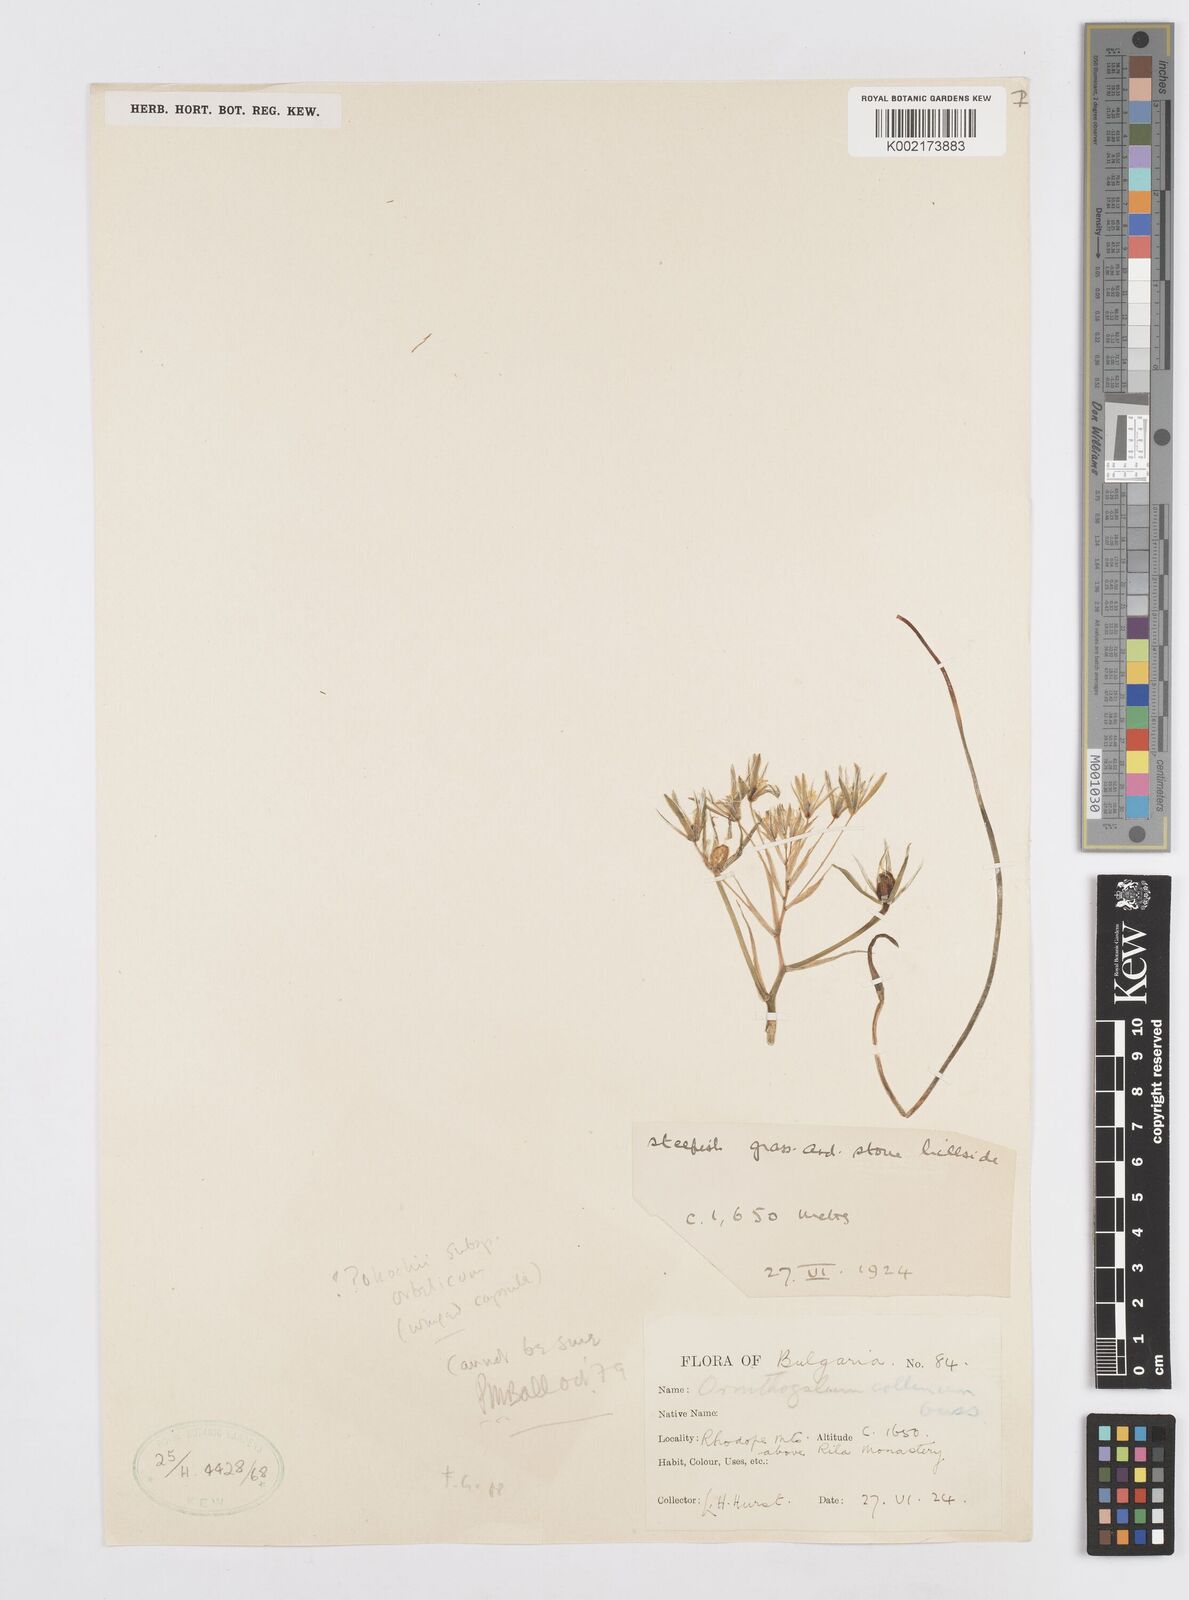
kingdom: Plantae
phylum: Tracheophyta
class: Liliopsida
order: Asparagales
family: Asparagaceae
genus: Ornithogalum
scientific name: Ornithogalum orthophyllum
